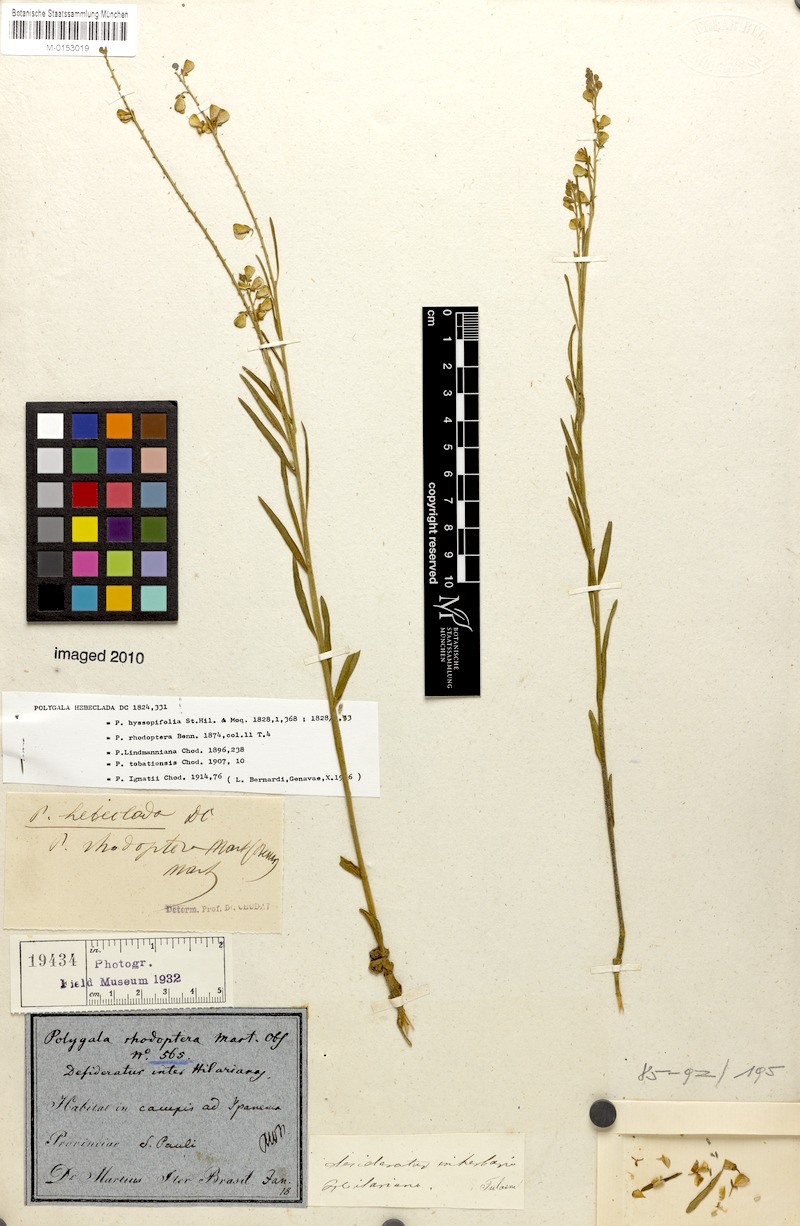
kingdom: Plantae
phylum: Tracheophyta
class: Magnoliopsida
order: Fabales
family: Polygalaceae
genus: Asemeia
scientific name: Asemeia rhodoptera
